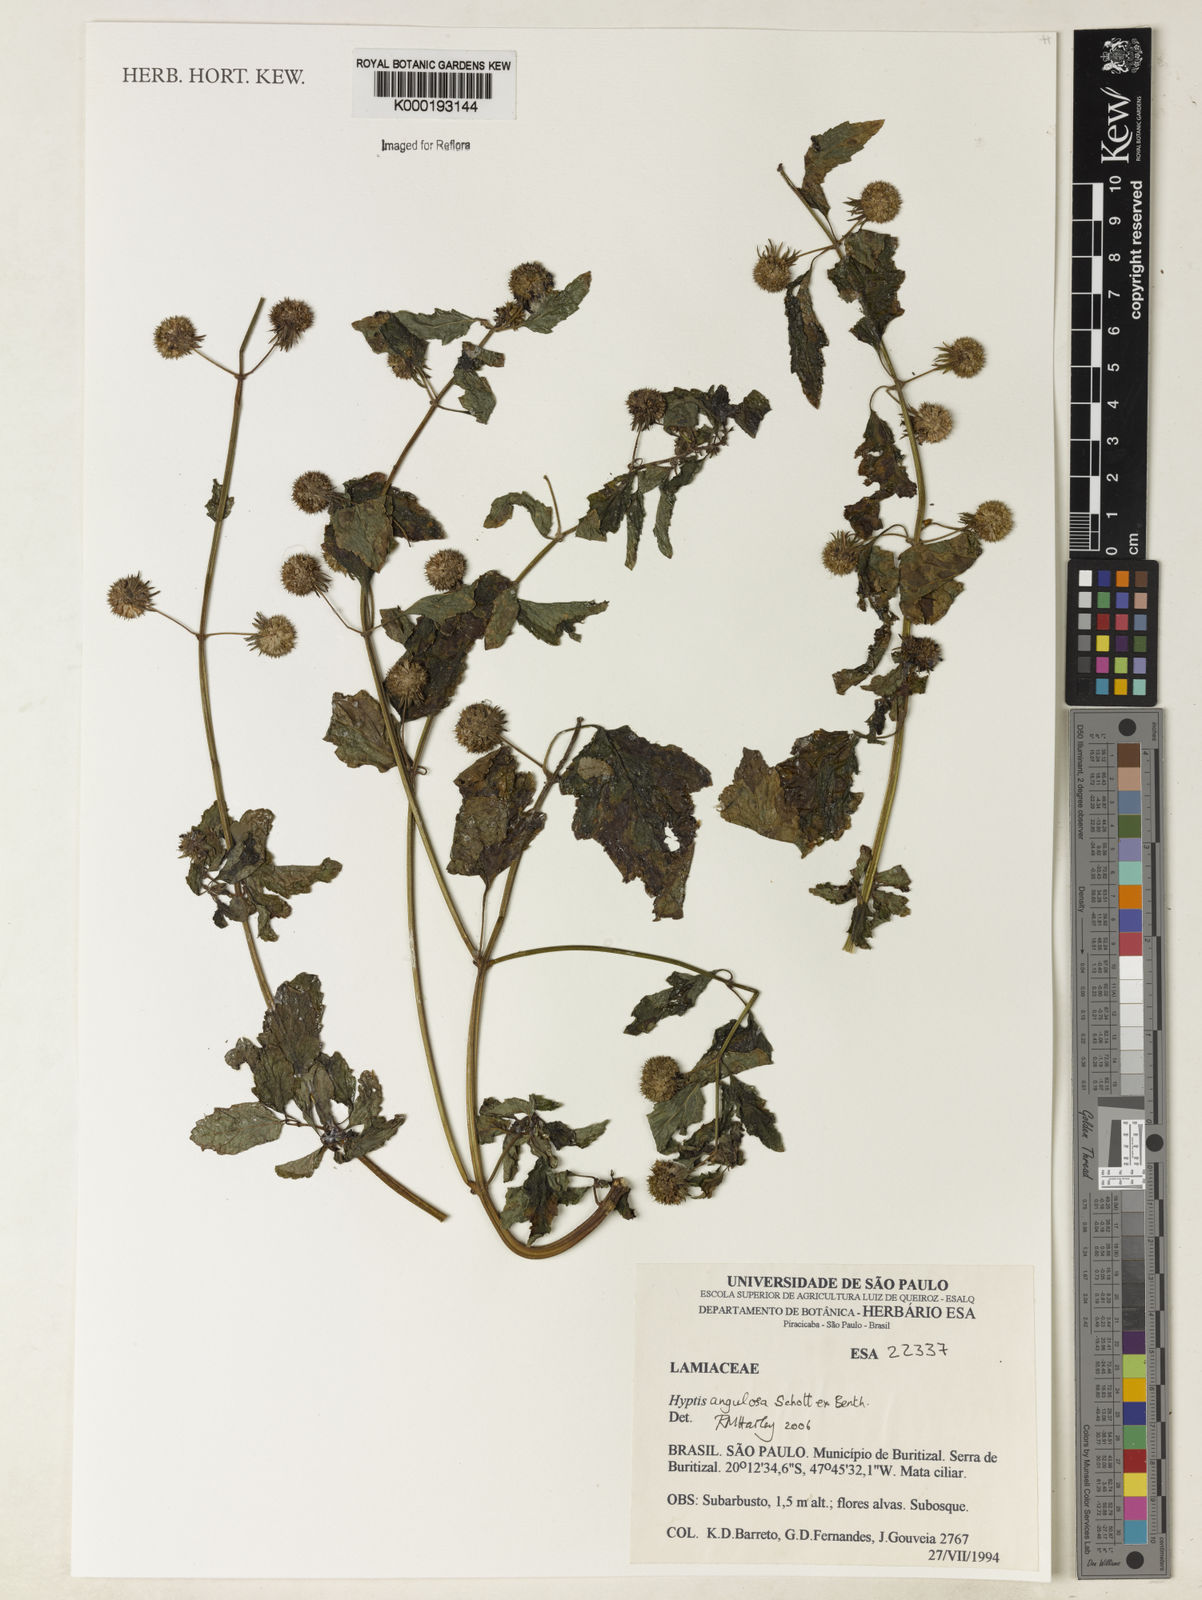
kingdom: Plantae
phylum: Tracheophyta
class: Magnoliopsida
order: Lamiales
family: Lamiaceae
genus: Hyptis
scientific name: Hyptis angulosa
